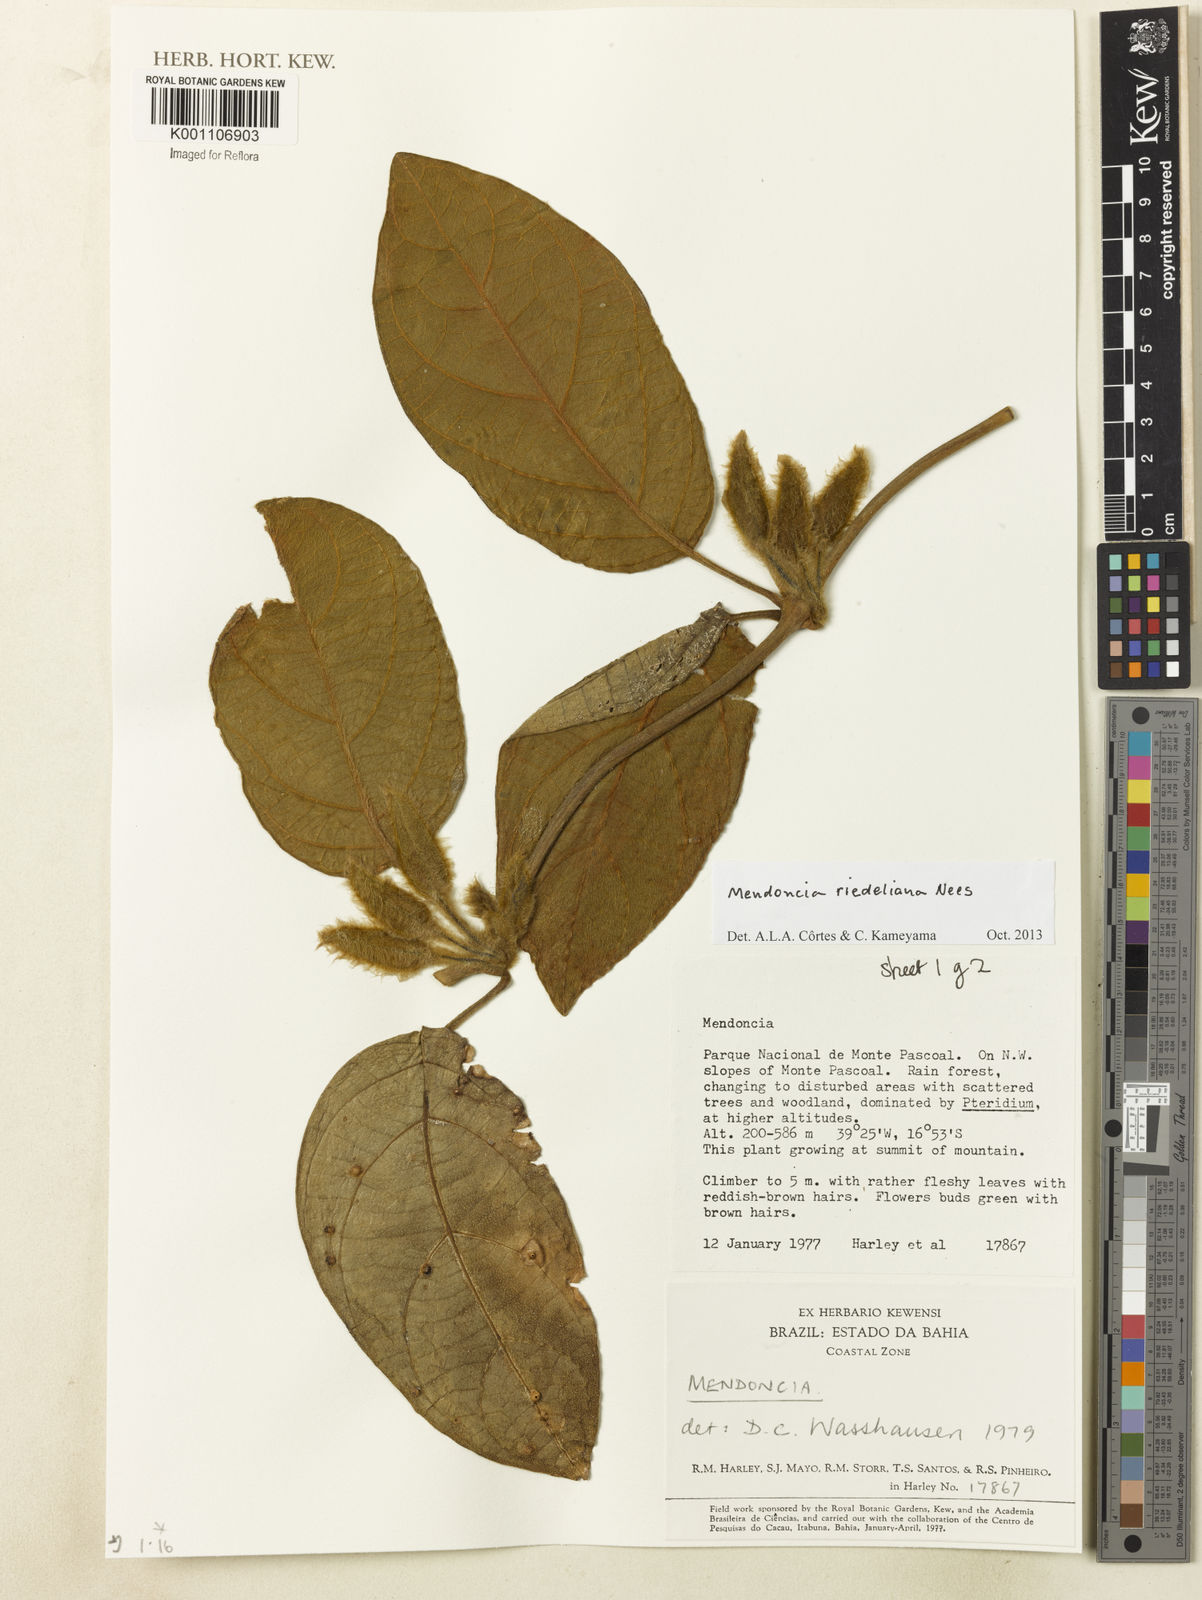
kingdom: Plantae
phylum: Tracheophyta
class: Magnoliopsida
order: Lamiales
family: Acanthaceae
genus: Mendoncia
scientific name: Mendoncia
